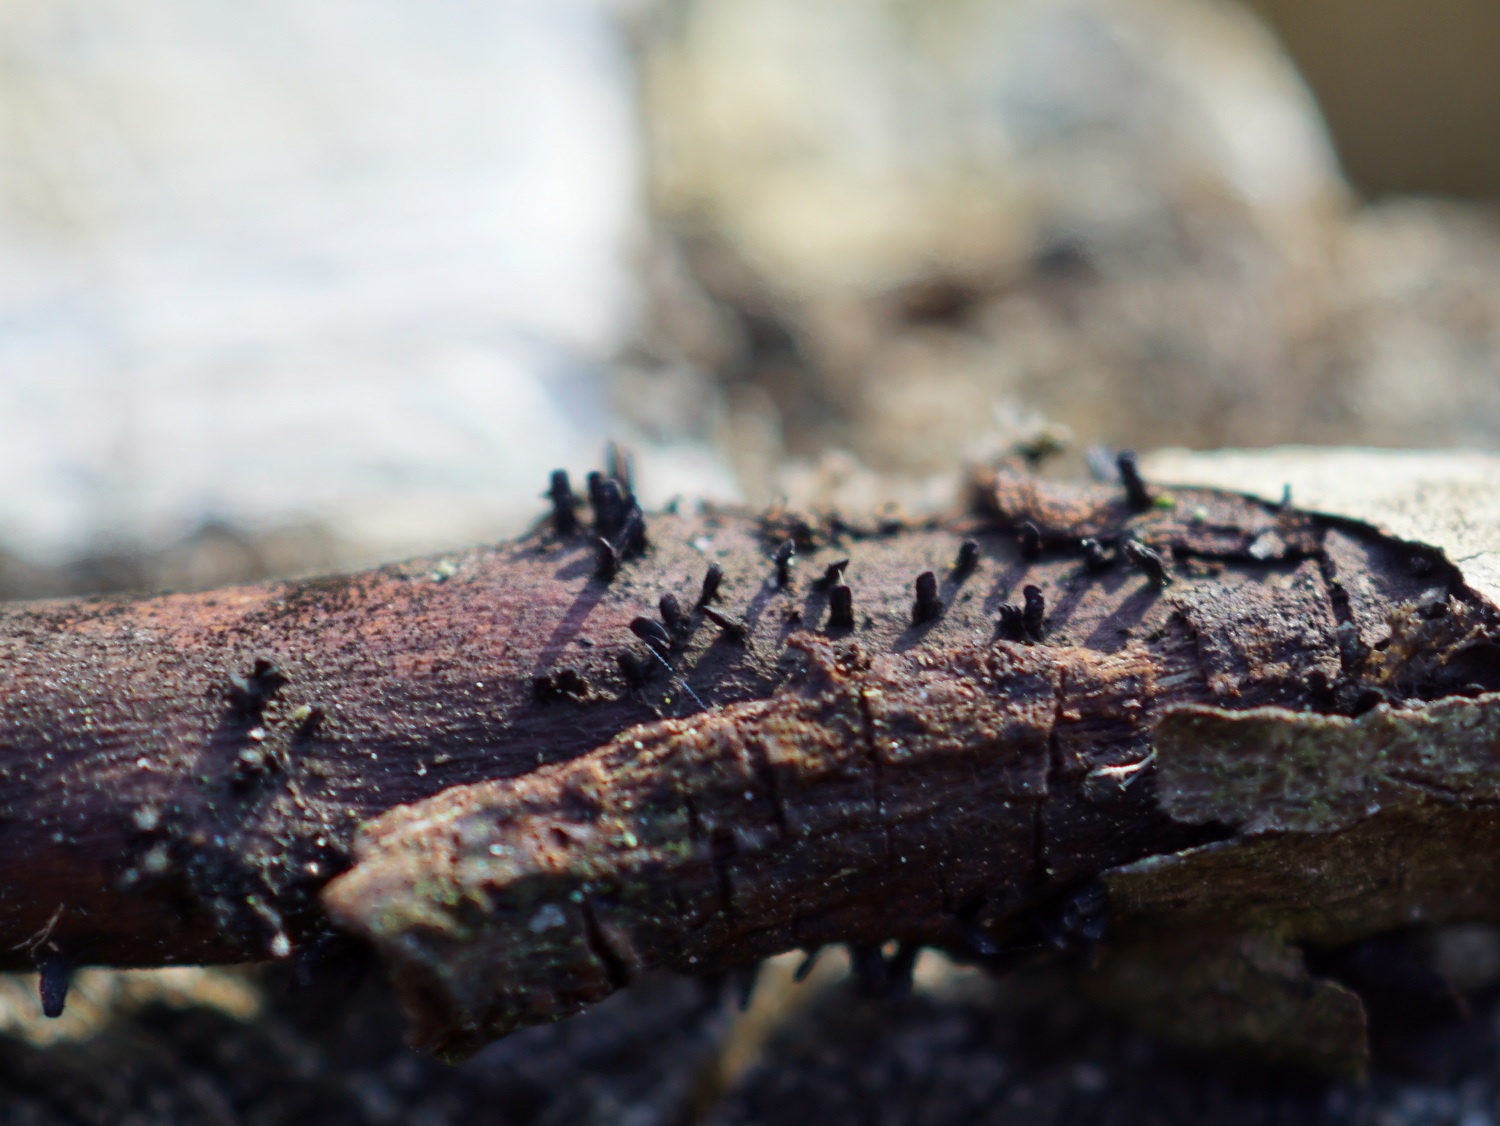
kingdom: Fungi
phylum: Ascomycota
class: Eurotiomycetes
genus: Glyphium
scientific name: Glyphium elatum
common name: kuløkse
